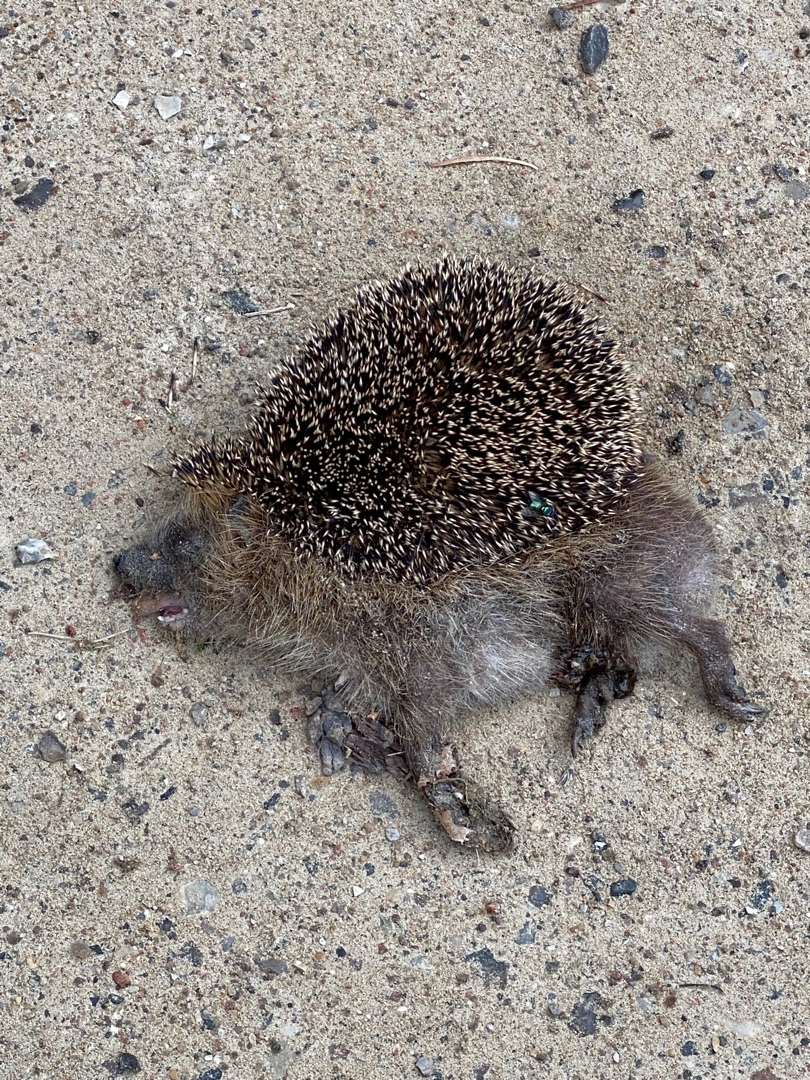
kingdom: Animalia
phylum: Chordata
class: Mammalia
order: Erinaceomorpha
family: Erinaceidae
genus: Erinaceus
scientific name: Erinaceus europaeus
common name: Pindsvin
